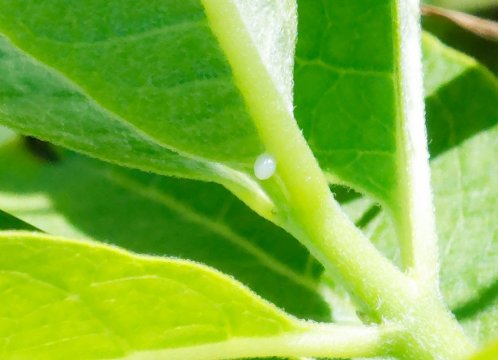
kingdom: Animalia
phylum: Arthropoda
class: Insecta
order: Lepidoptera
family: Nymphalidae
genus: Danaus
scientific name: Danaus plexippus
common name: Monarch
